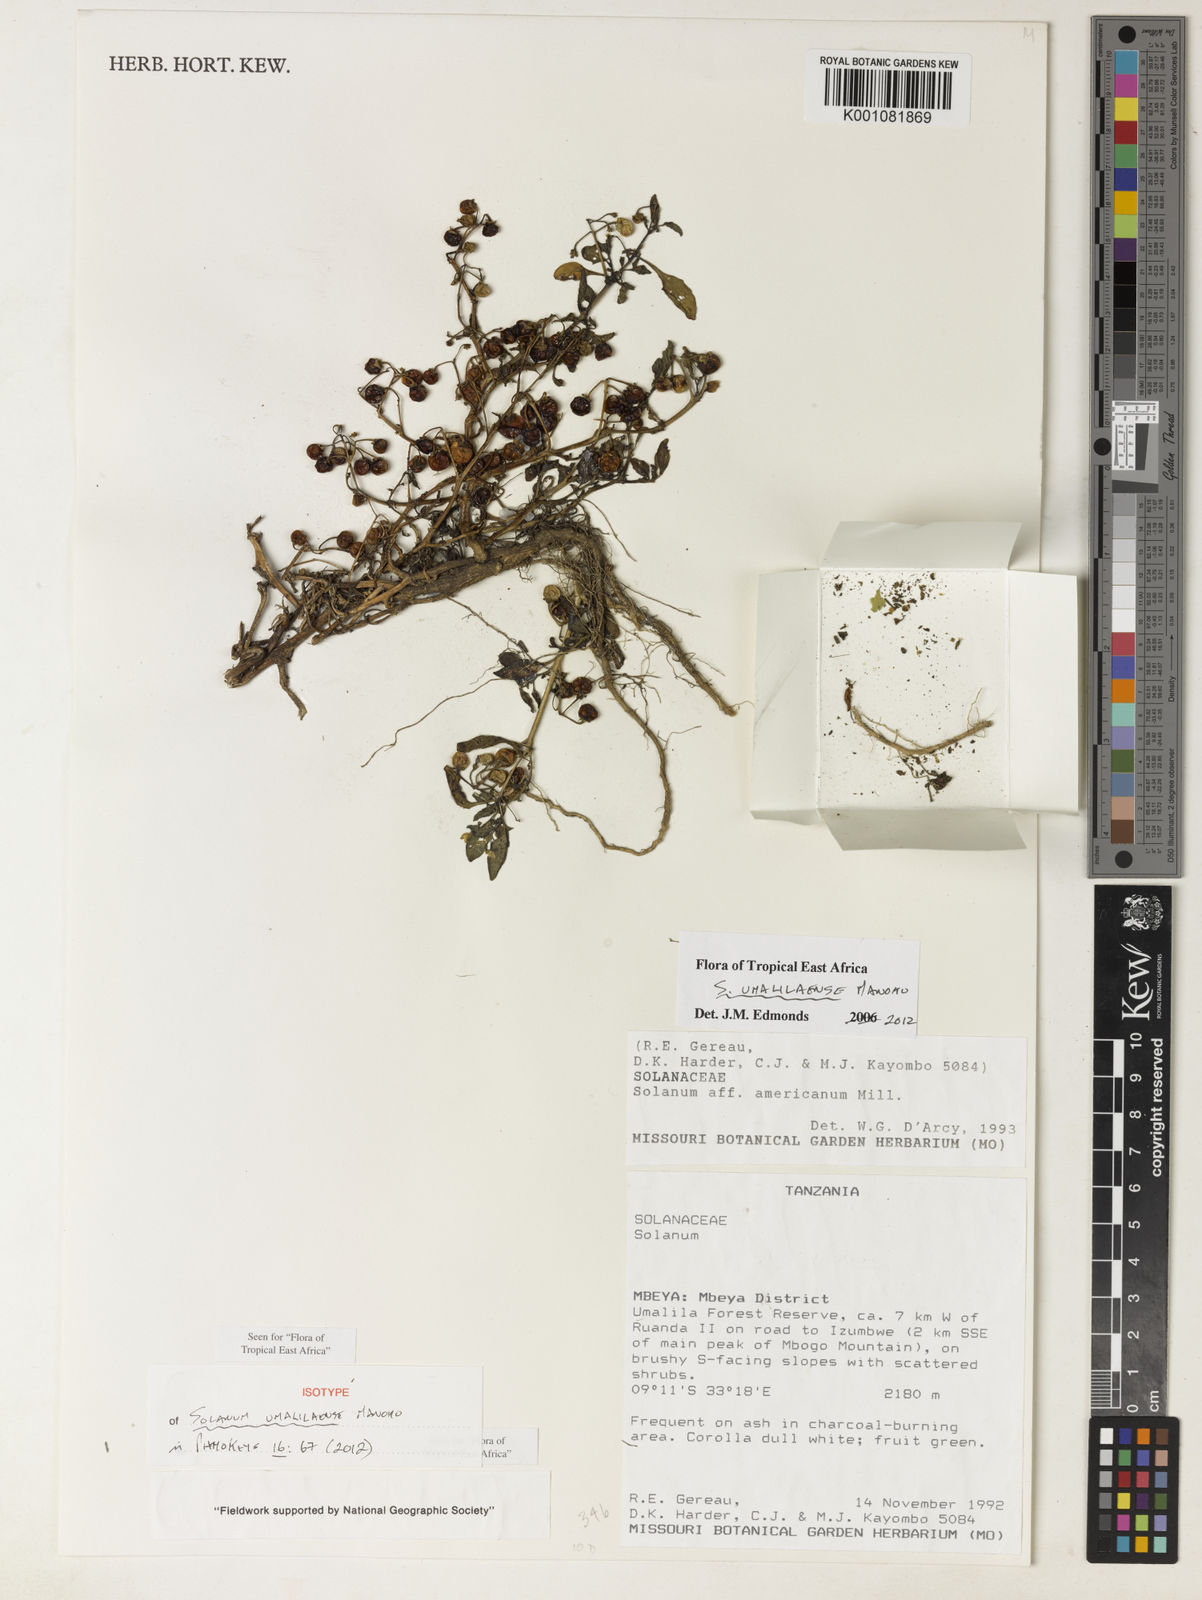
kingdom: Plantae
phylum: Tracheophyta
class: Magnoliopsida
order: Solanales
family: Solanaceae
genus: Solanum
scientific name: Solanum umalilaense
